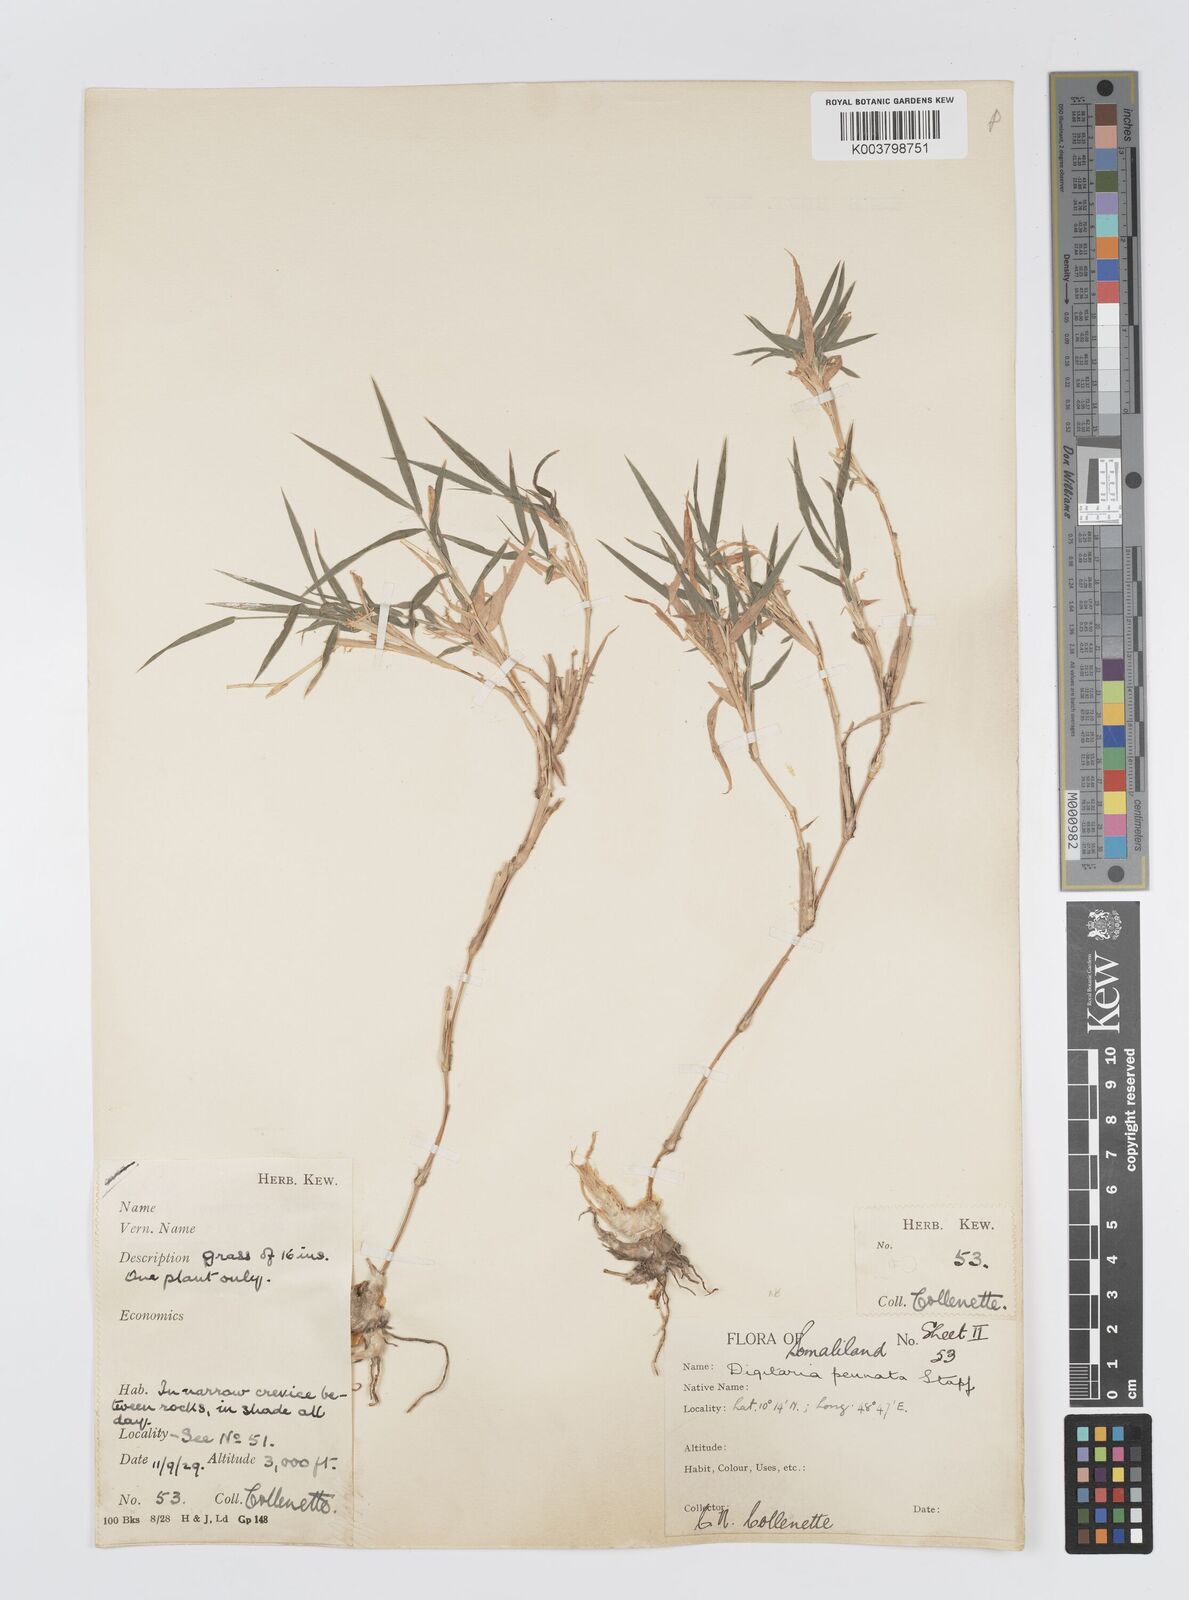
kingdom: Plantae
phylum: Tracheophyta
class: Liliopsida
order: Poales
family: Poaceae
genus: Digitaria
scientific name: Digitaria pennata
